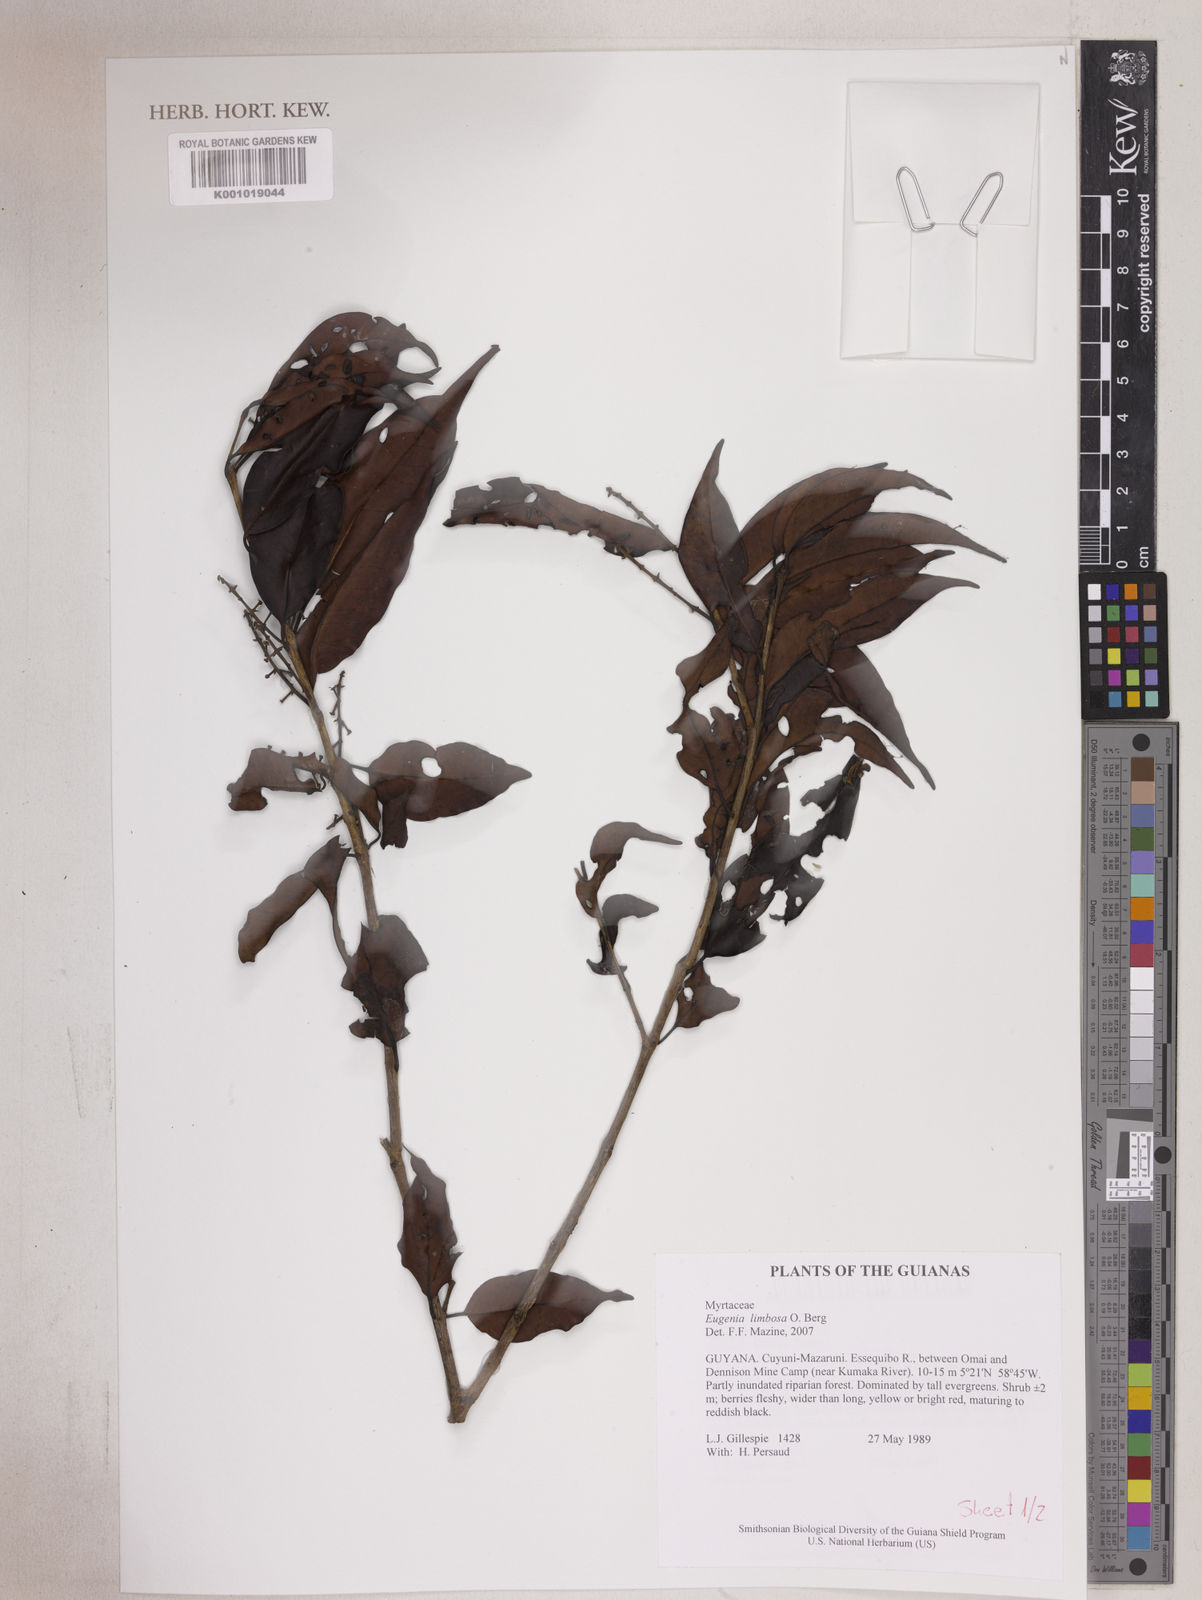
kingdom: Plantae
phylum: Tracheophyta
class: Magnoliopsida
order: Myrtales
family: Myrtaceae
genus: Eugenia
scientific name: Eugenia limbosa
